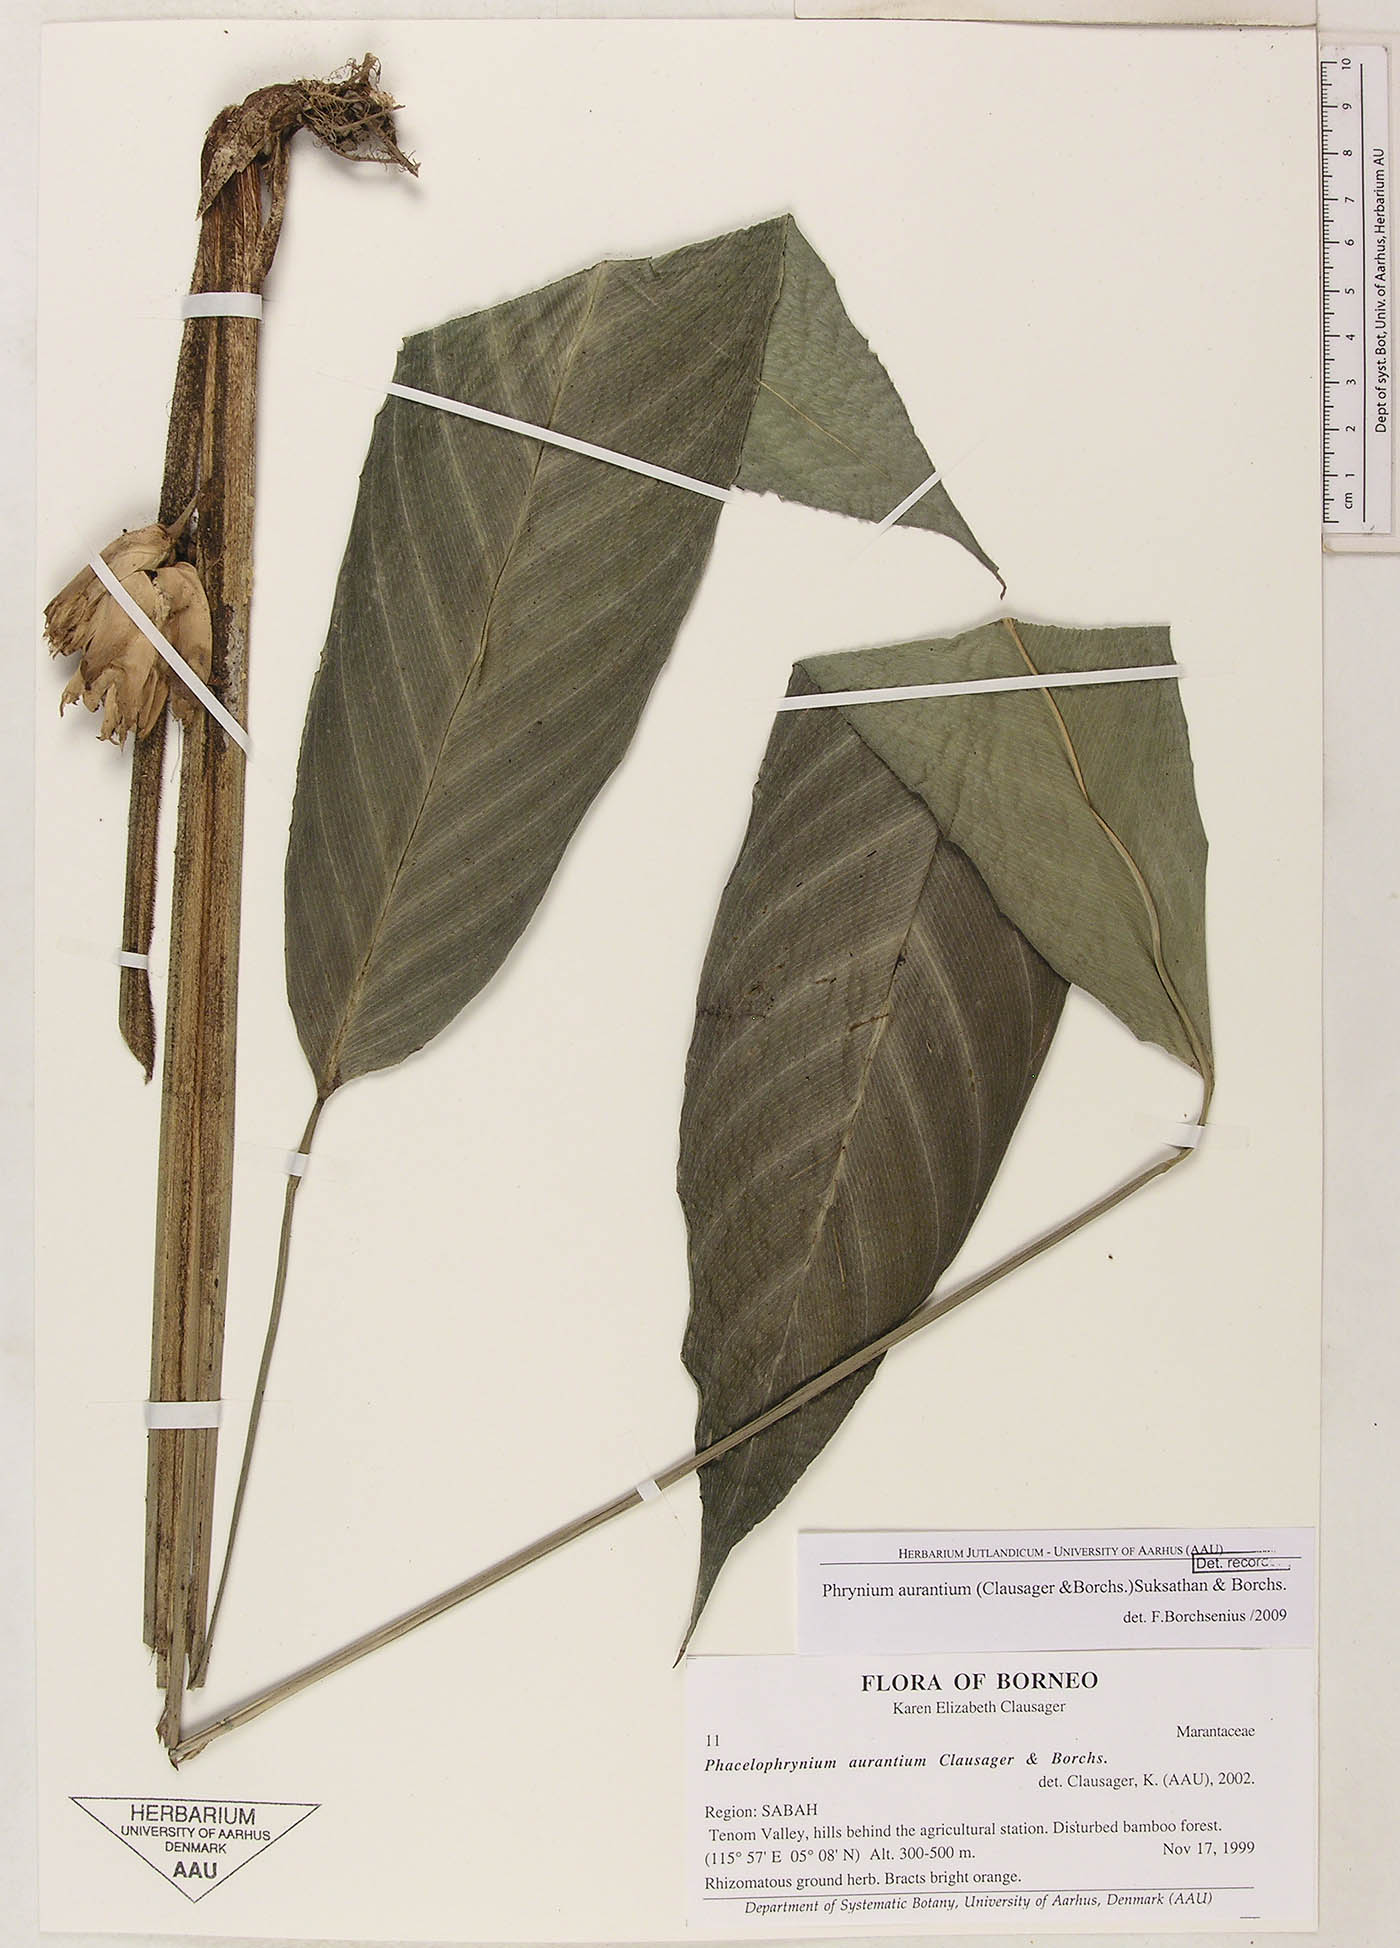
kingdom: Plantae
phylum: Tracheophyta
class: Liliopsida
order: Zingiberales
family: Marantaceae
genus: Phrynium
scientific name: Phrynium aurantium
